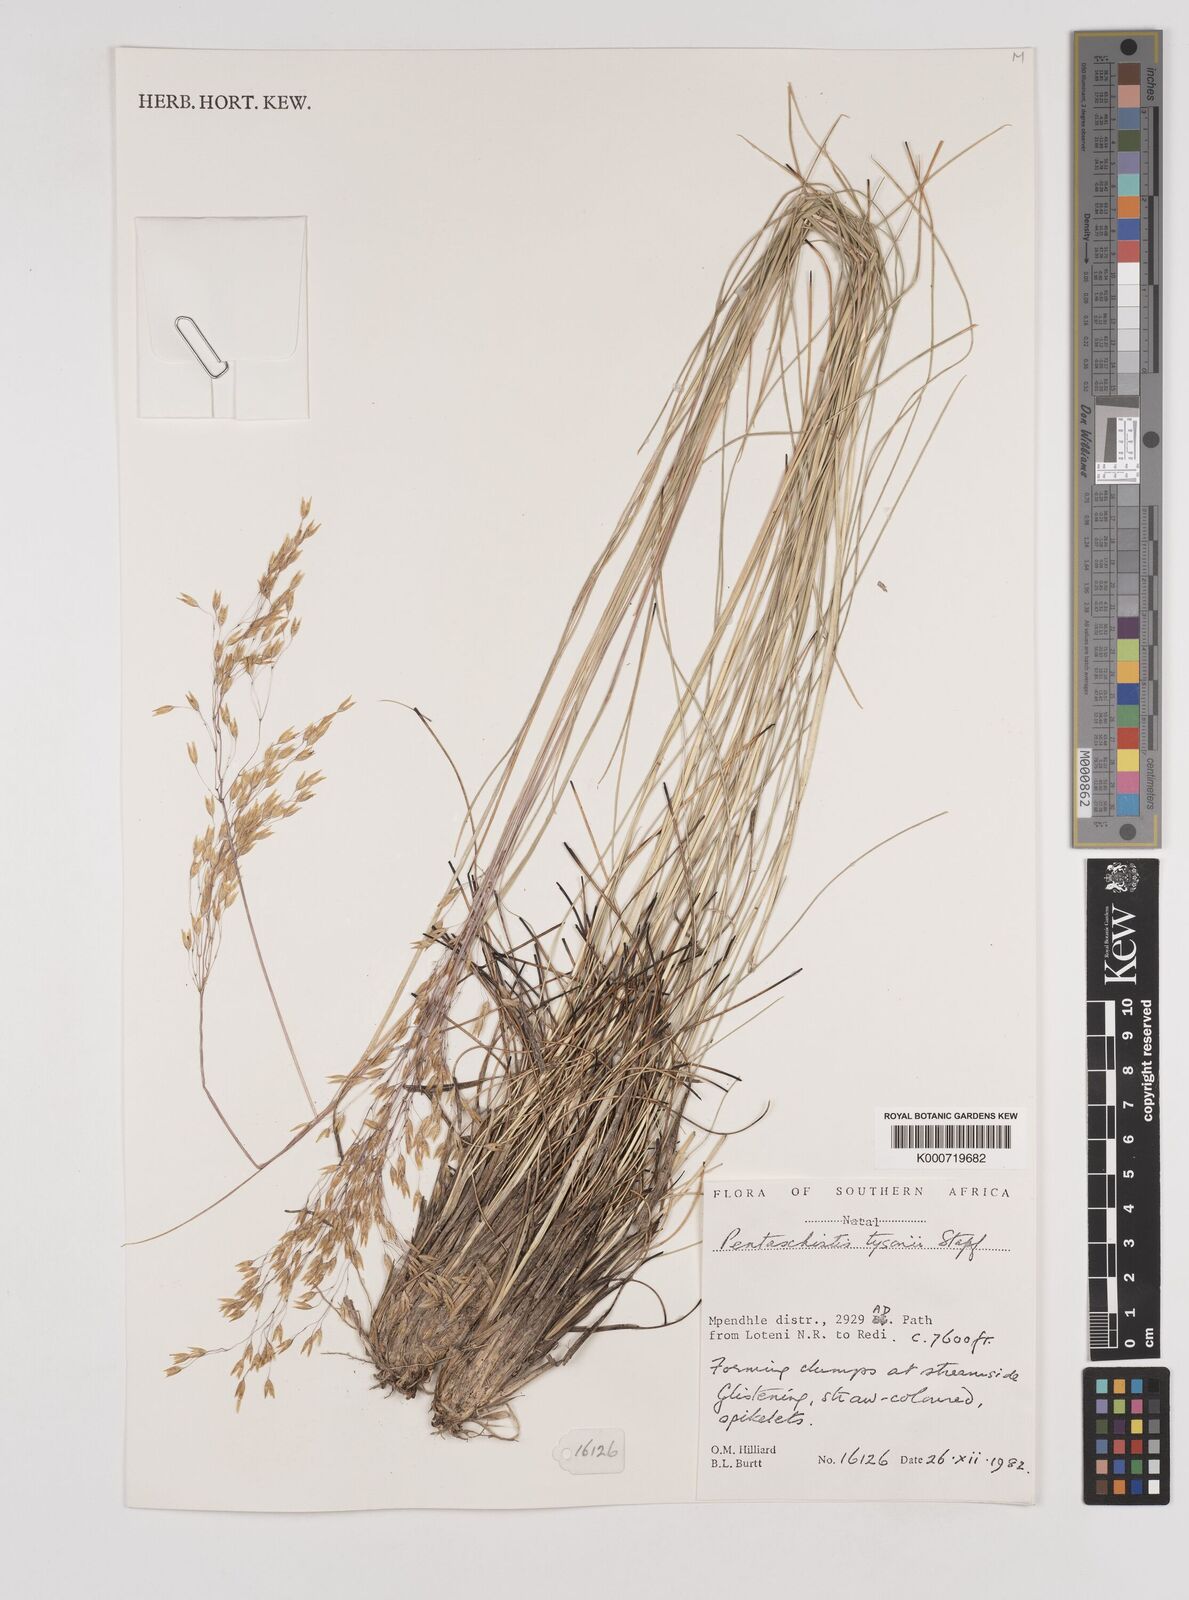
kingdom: Plantae
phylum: Tracheophyta
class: Liliopsida
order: Poales
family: Poaceae
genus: Pentameris
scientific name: Pentameris tysonii
